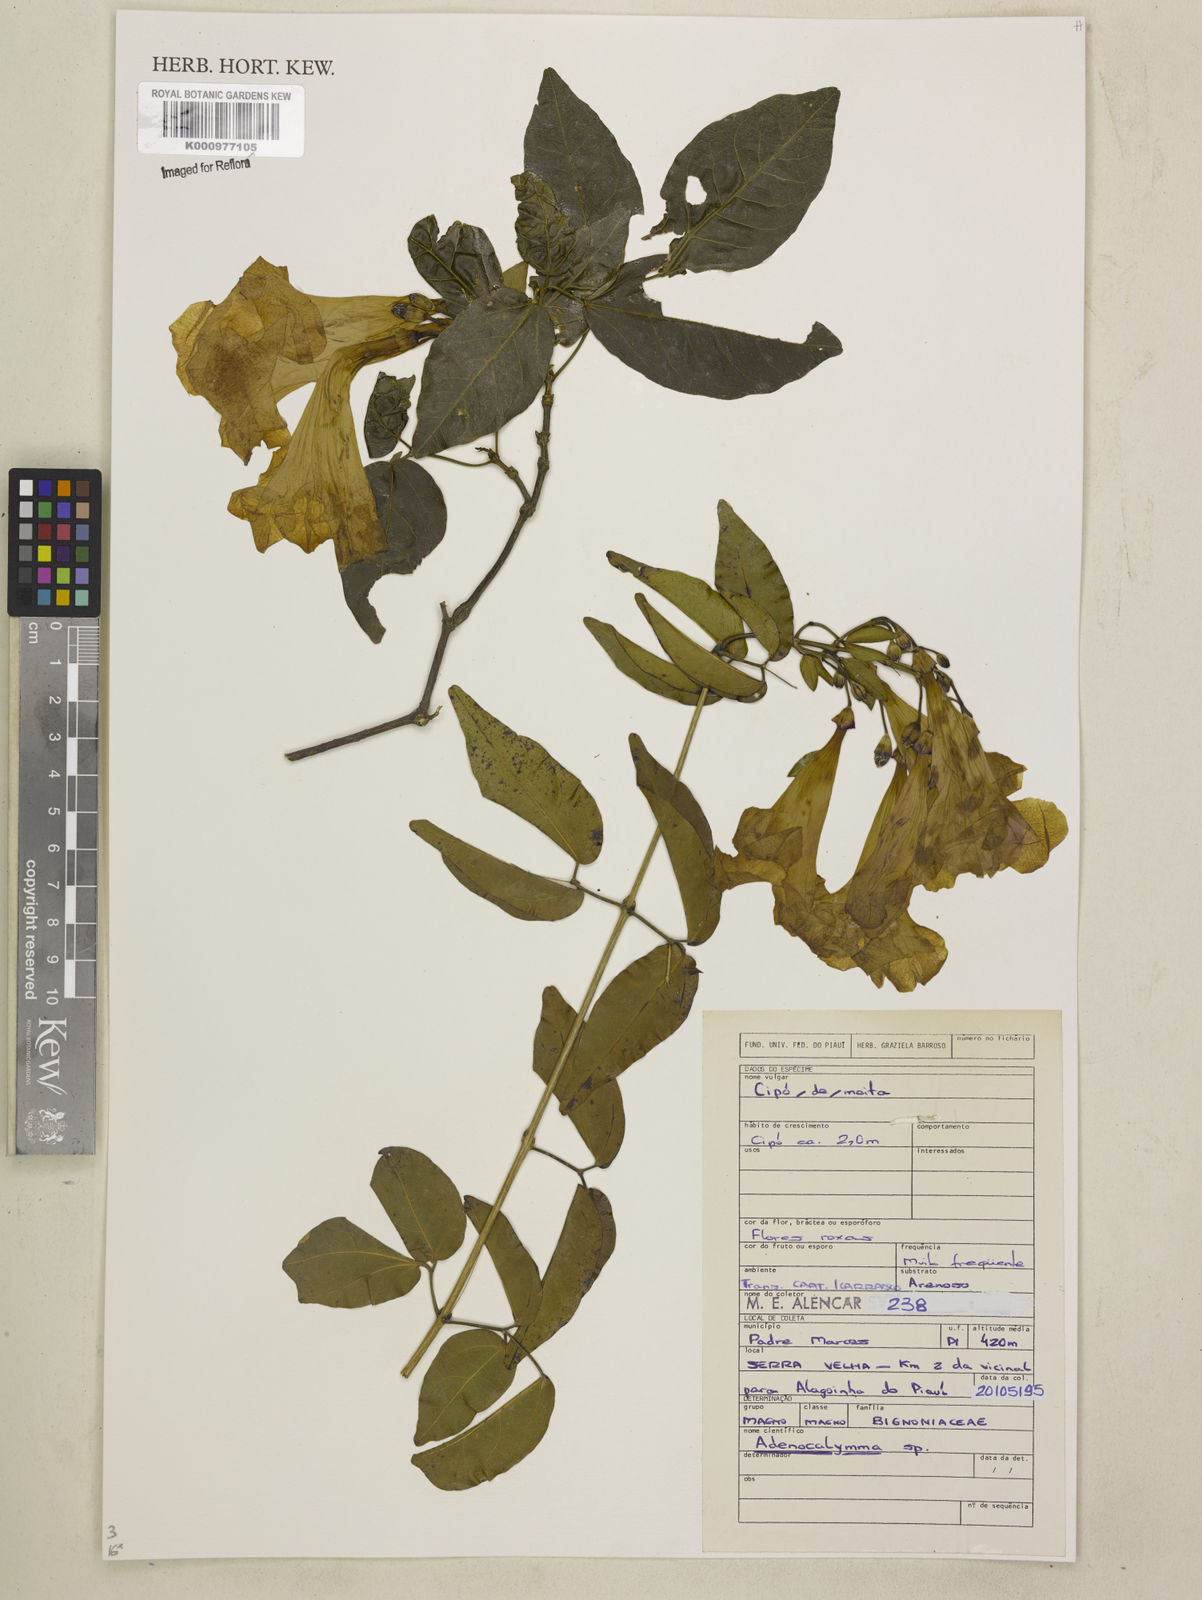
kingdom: Plantae
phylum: Tracheophyta
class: Magnoliopsida
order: Lamiales
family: Bignoniaceae
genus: Adenocalymma
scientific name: Adenocalymma
